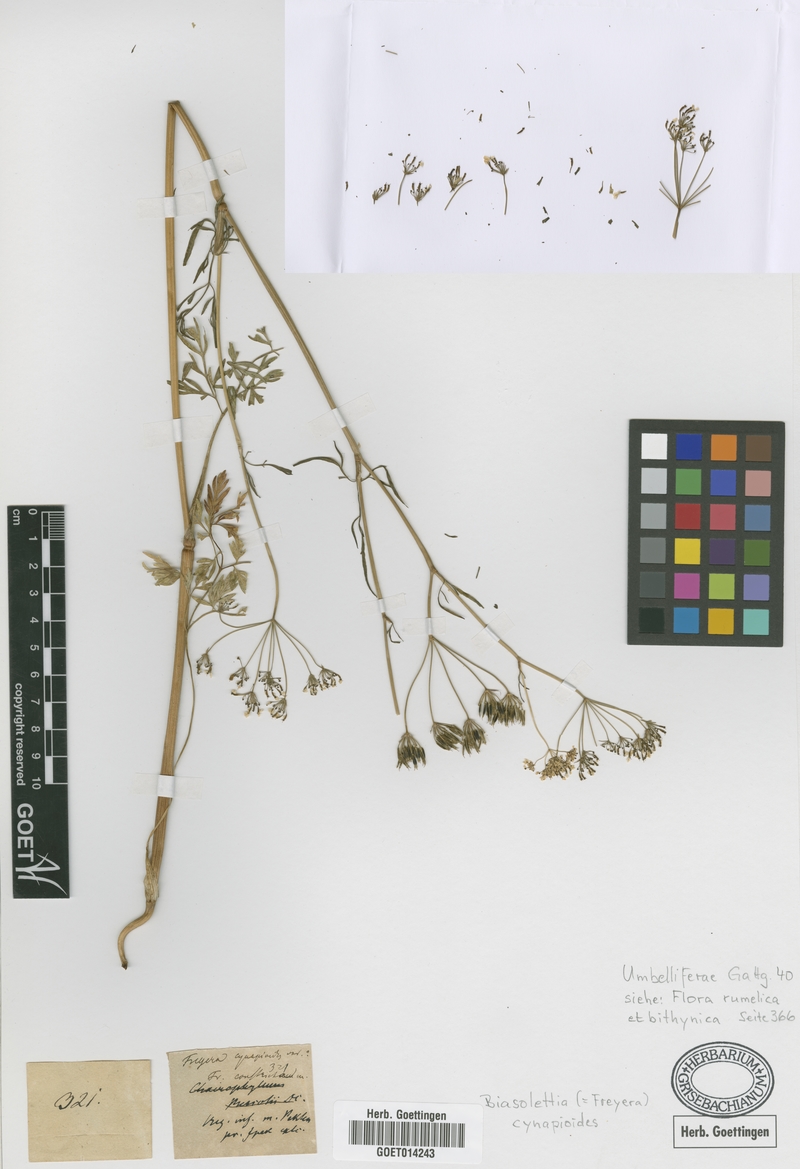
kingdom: Plantae
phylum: Tracheophyta
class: Magnoliopsida
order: Apiales
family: Apiaceae
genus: Geocaryum
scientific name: Geocaryum cynapioides
